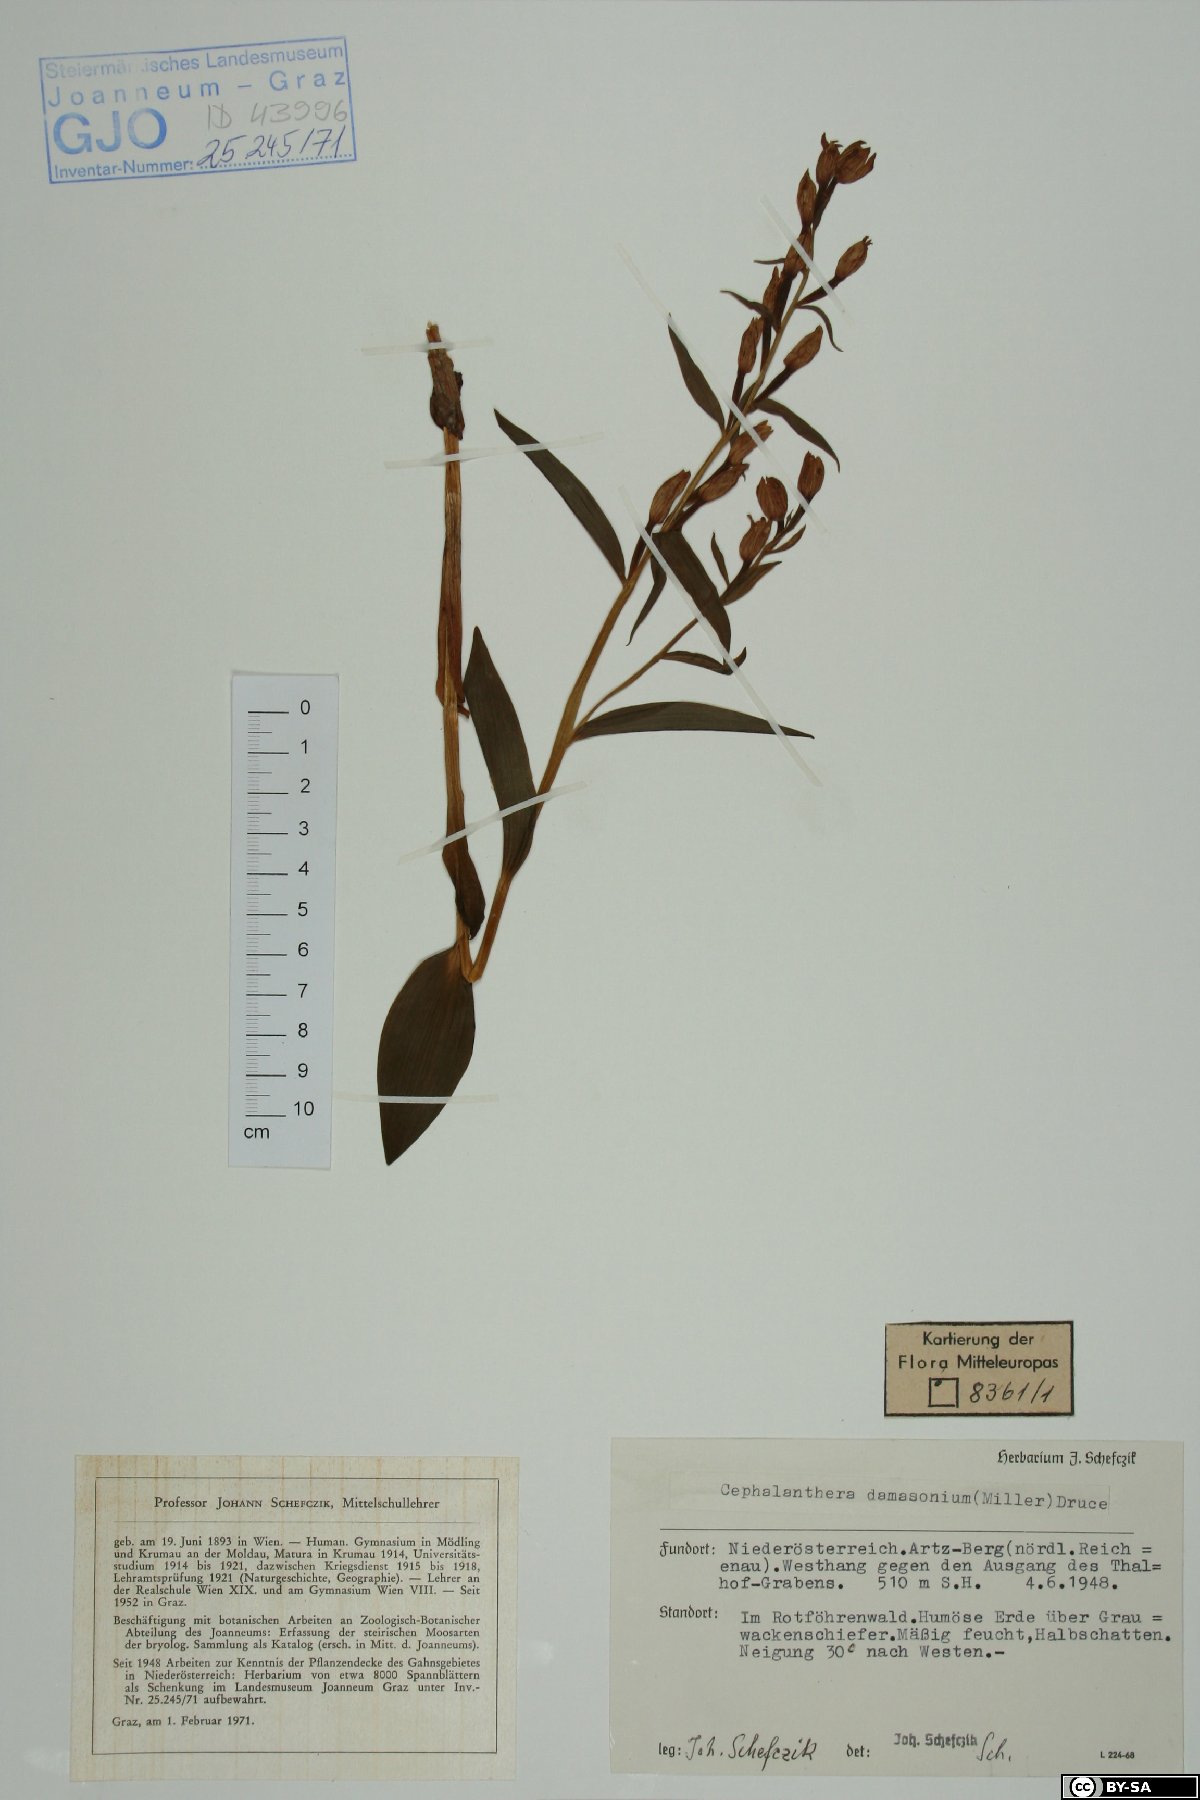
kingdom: Plantae
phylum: Tracheophyta
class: Liliopsida
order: Asparagales
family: Orchidaceae
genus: Cephalanthera
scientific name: Cephalanthera damasonium
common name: White helleborine
